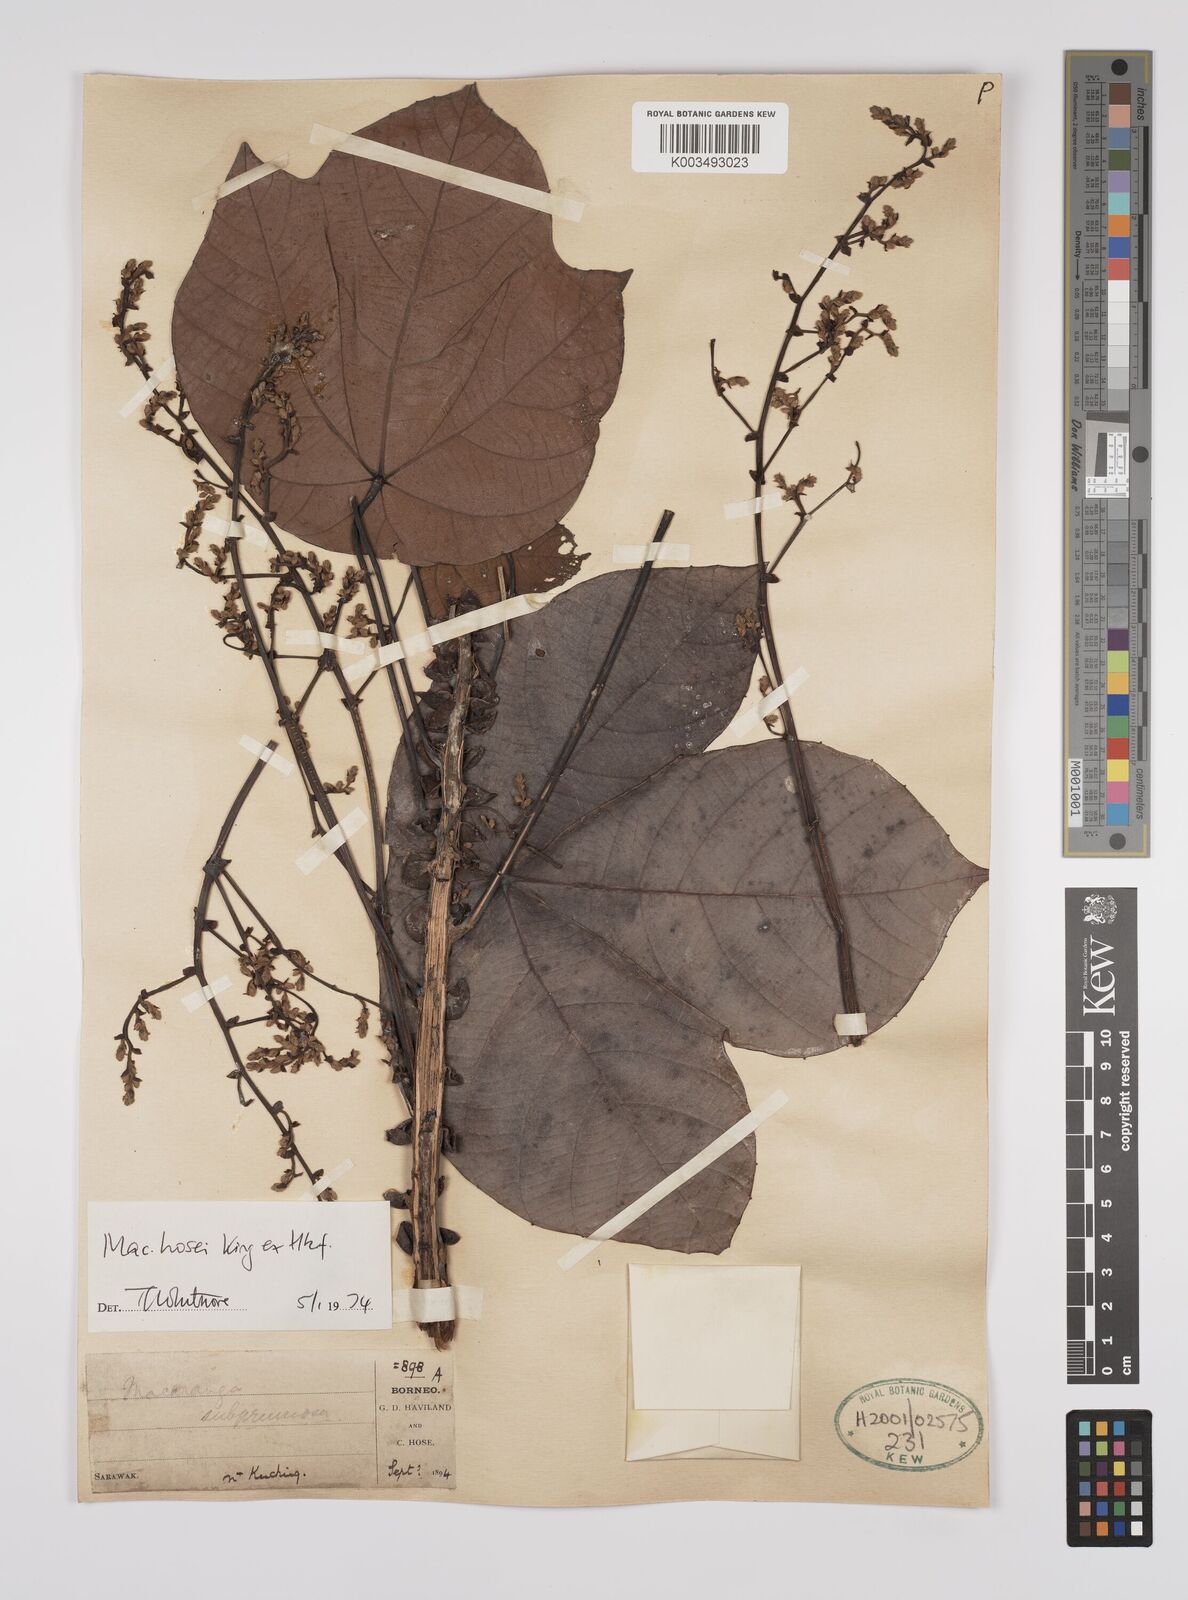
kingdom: Plantae
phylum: Tracheophyta
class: Magnoliopsida
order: Malpighiales
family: Euphorbiaceae
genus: Macaranga
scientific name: Macaranga hosei
